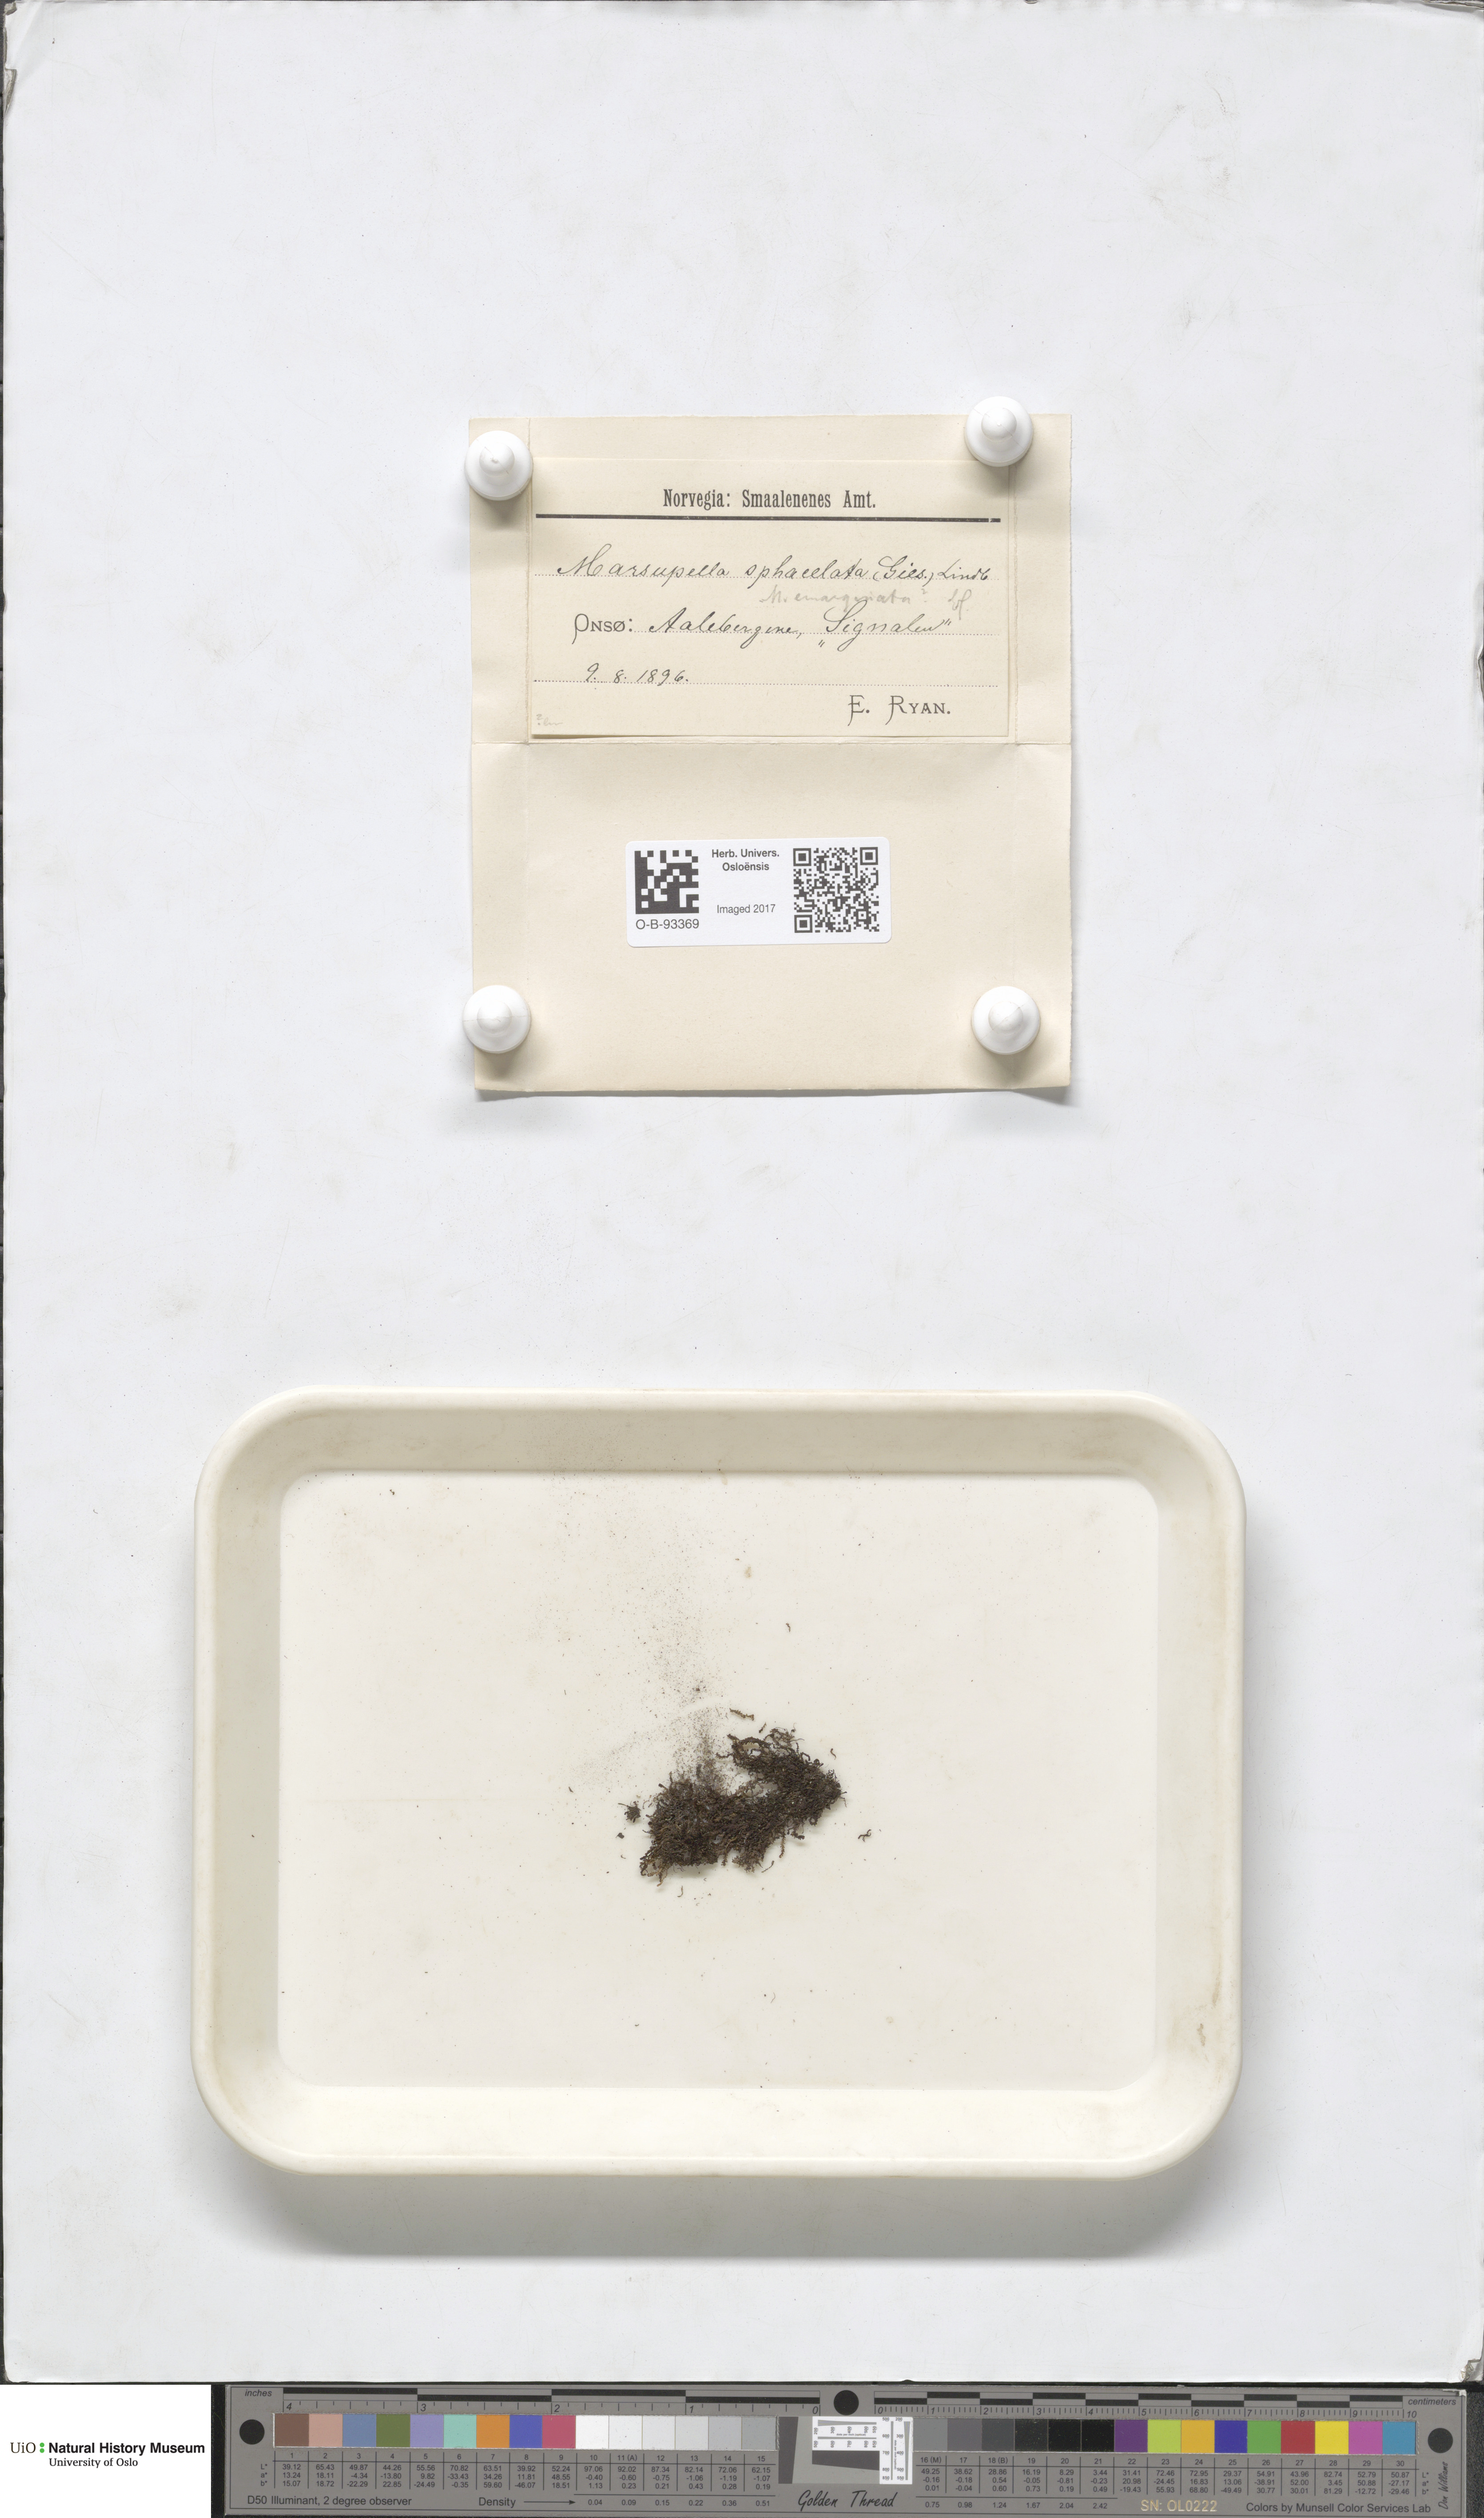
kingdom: Plantae
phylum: Marchantiophyta
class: Jungermanniopsida
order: Jungermanniales
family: Gymnomitriaceae
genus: Gymnomitrion
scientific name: Gymnomitrion brevissimum
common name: Snow rustwort
